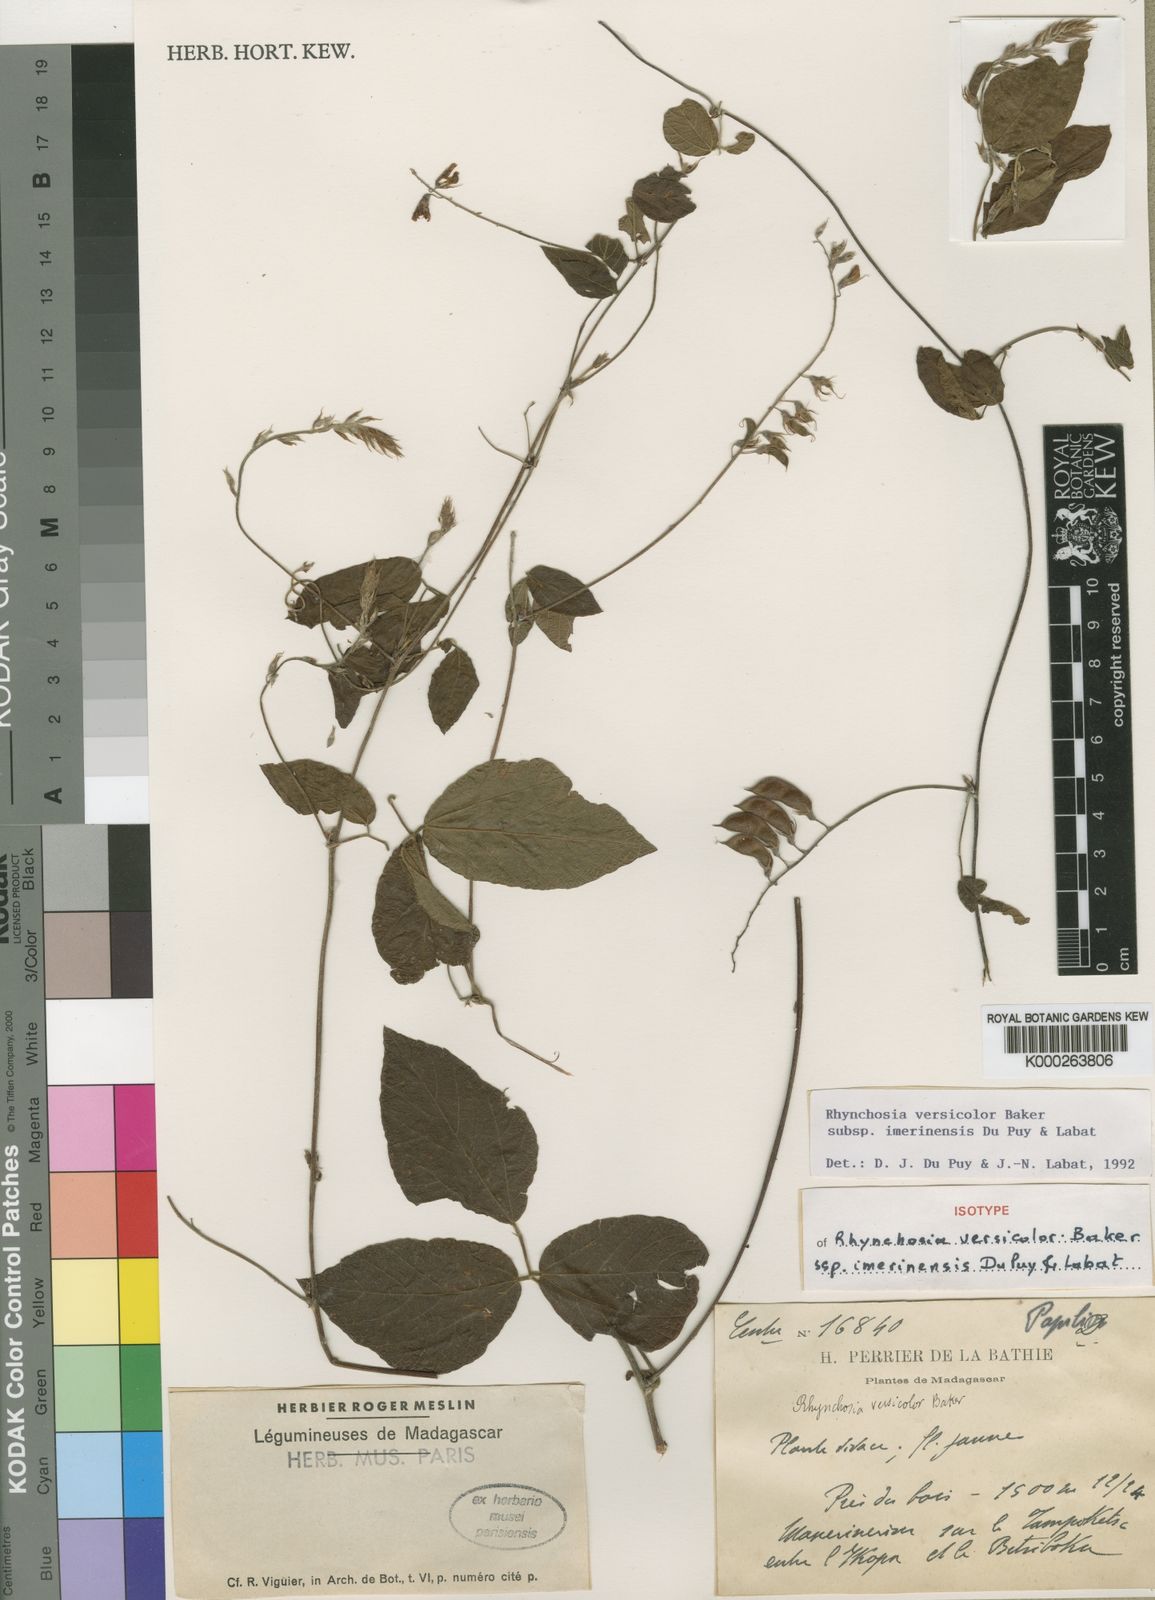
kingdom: Plantae
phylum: Tracheophyta
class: Magnoliopsida
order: Fabales
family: Fabaceae
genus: Rhynchosia
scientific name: Rhynchosia versicolor
